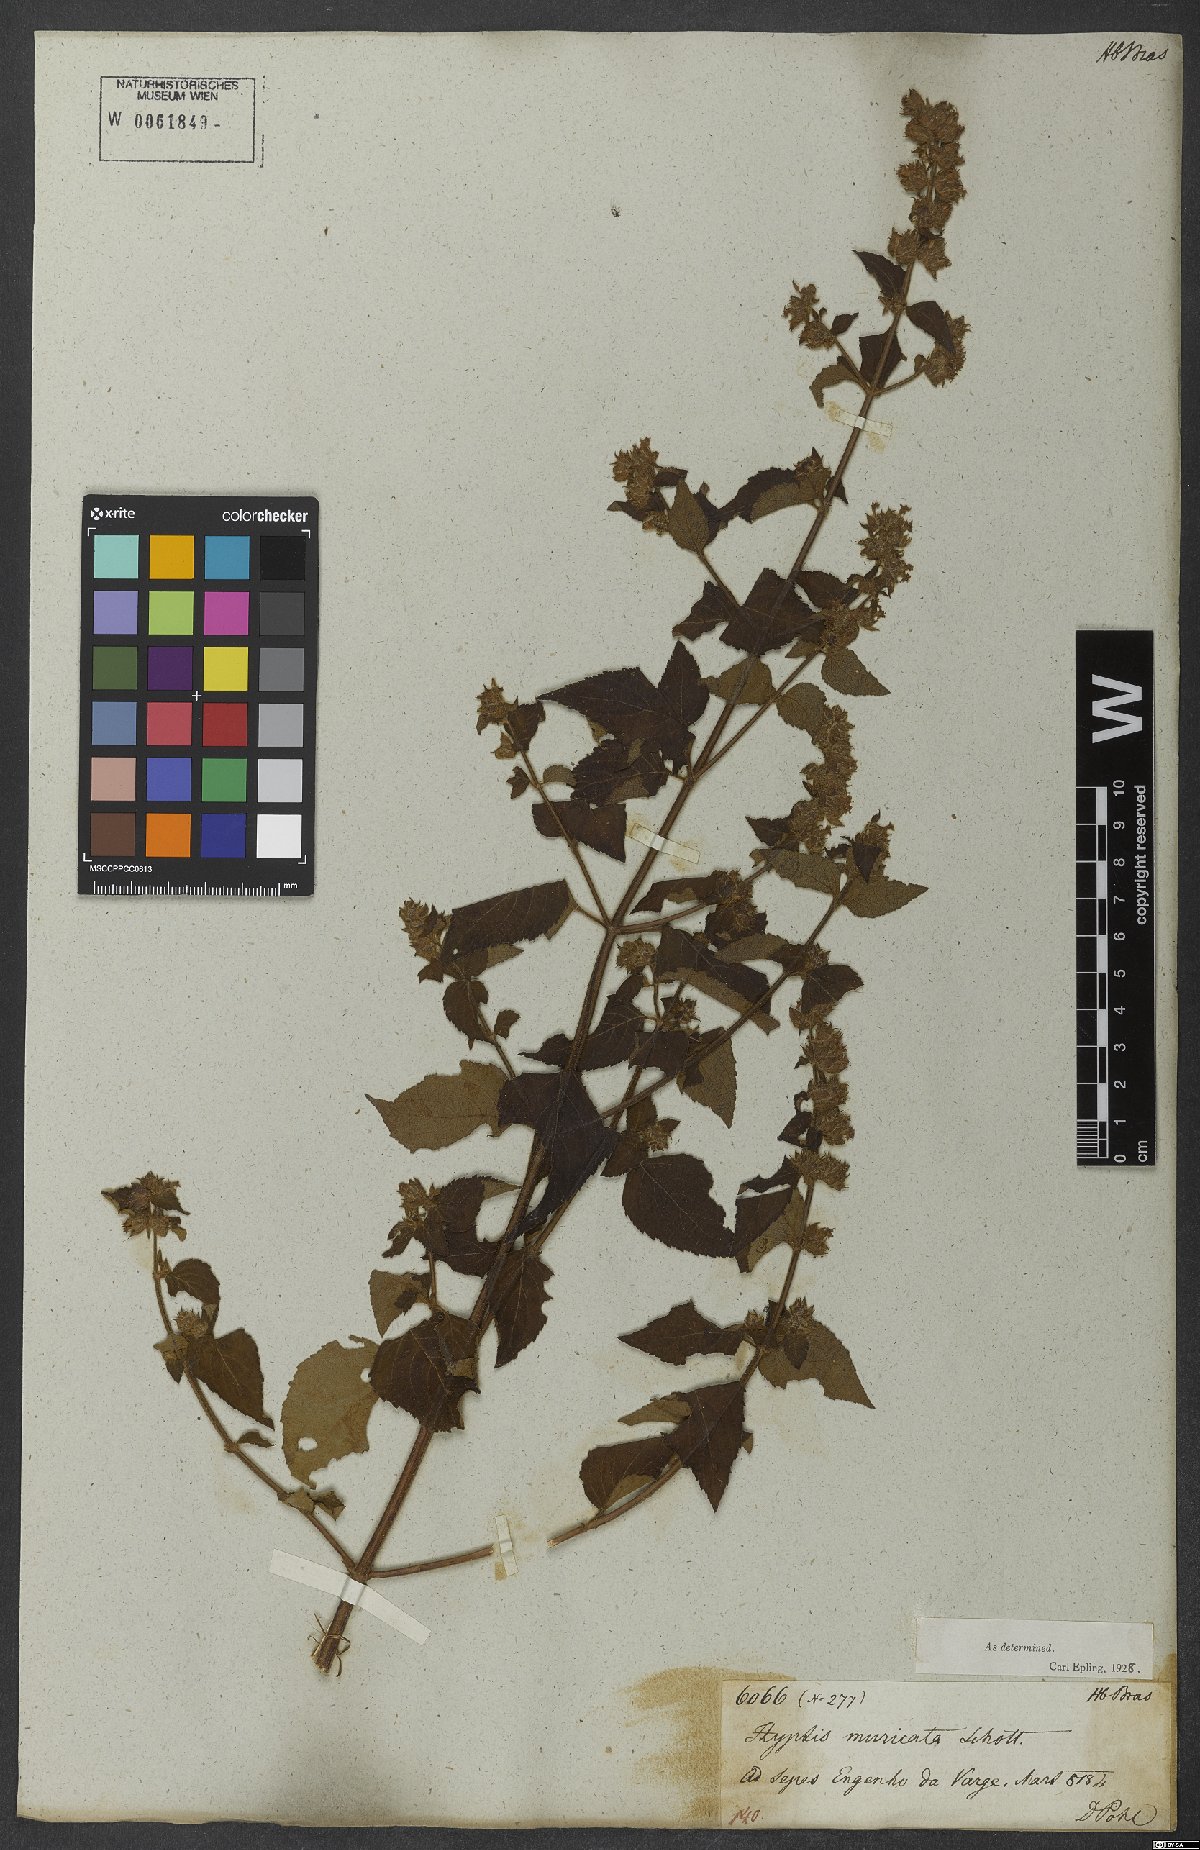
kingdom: Plantae
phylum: Tracheophyta
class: Magnoliopsida
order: Lamiales
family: Lamiaceae
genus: Cantinoa
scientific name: Cantinoa muricata
